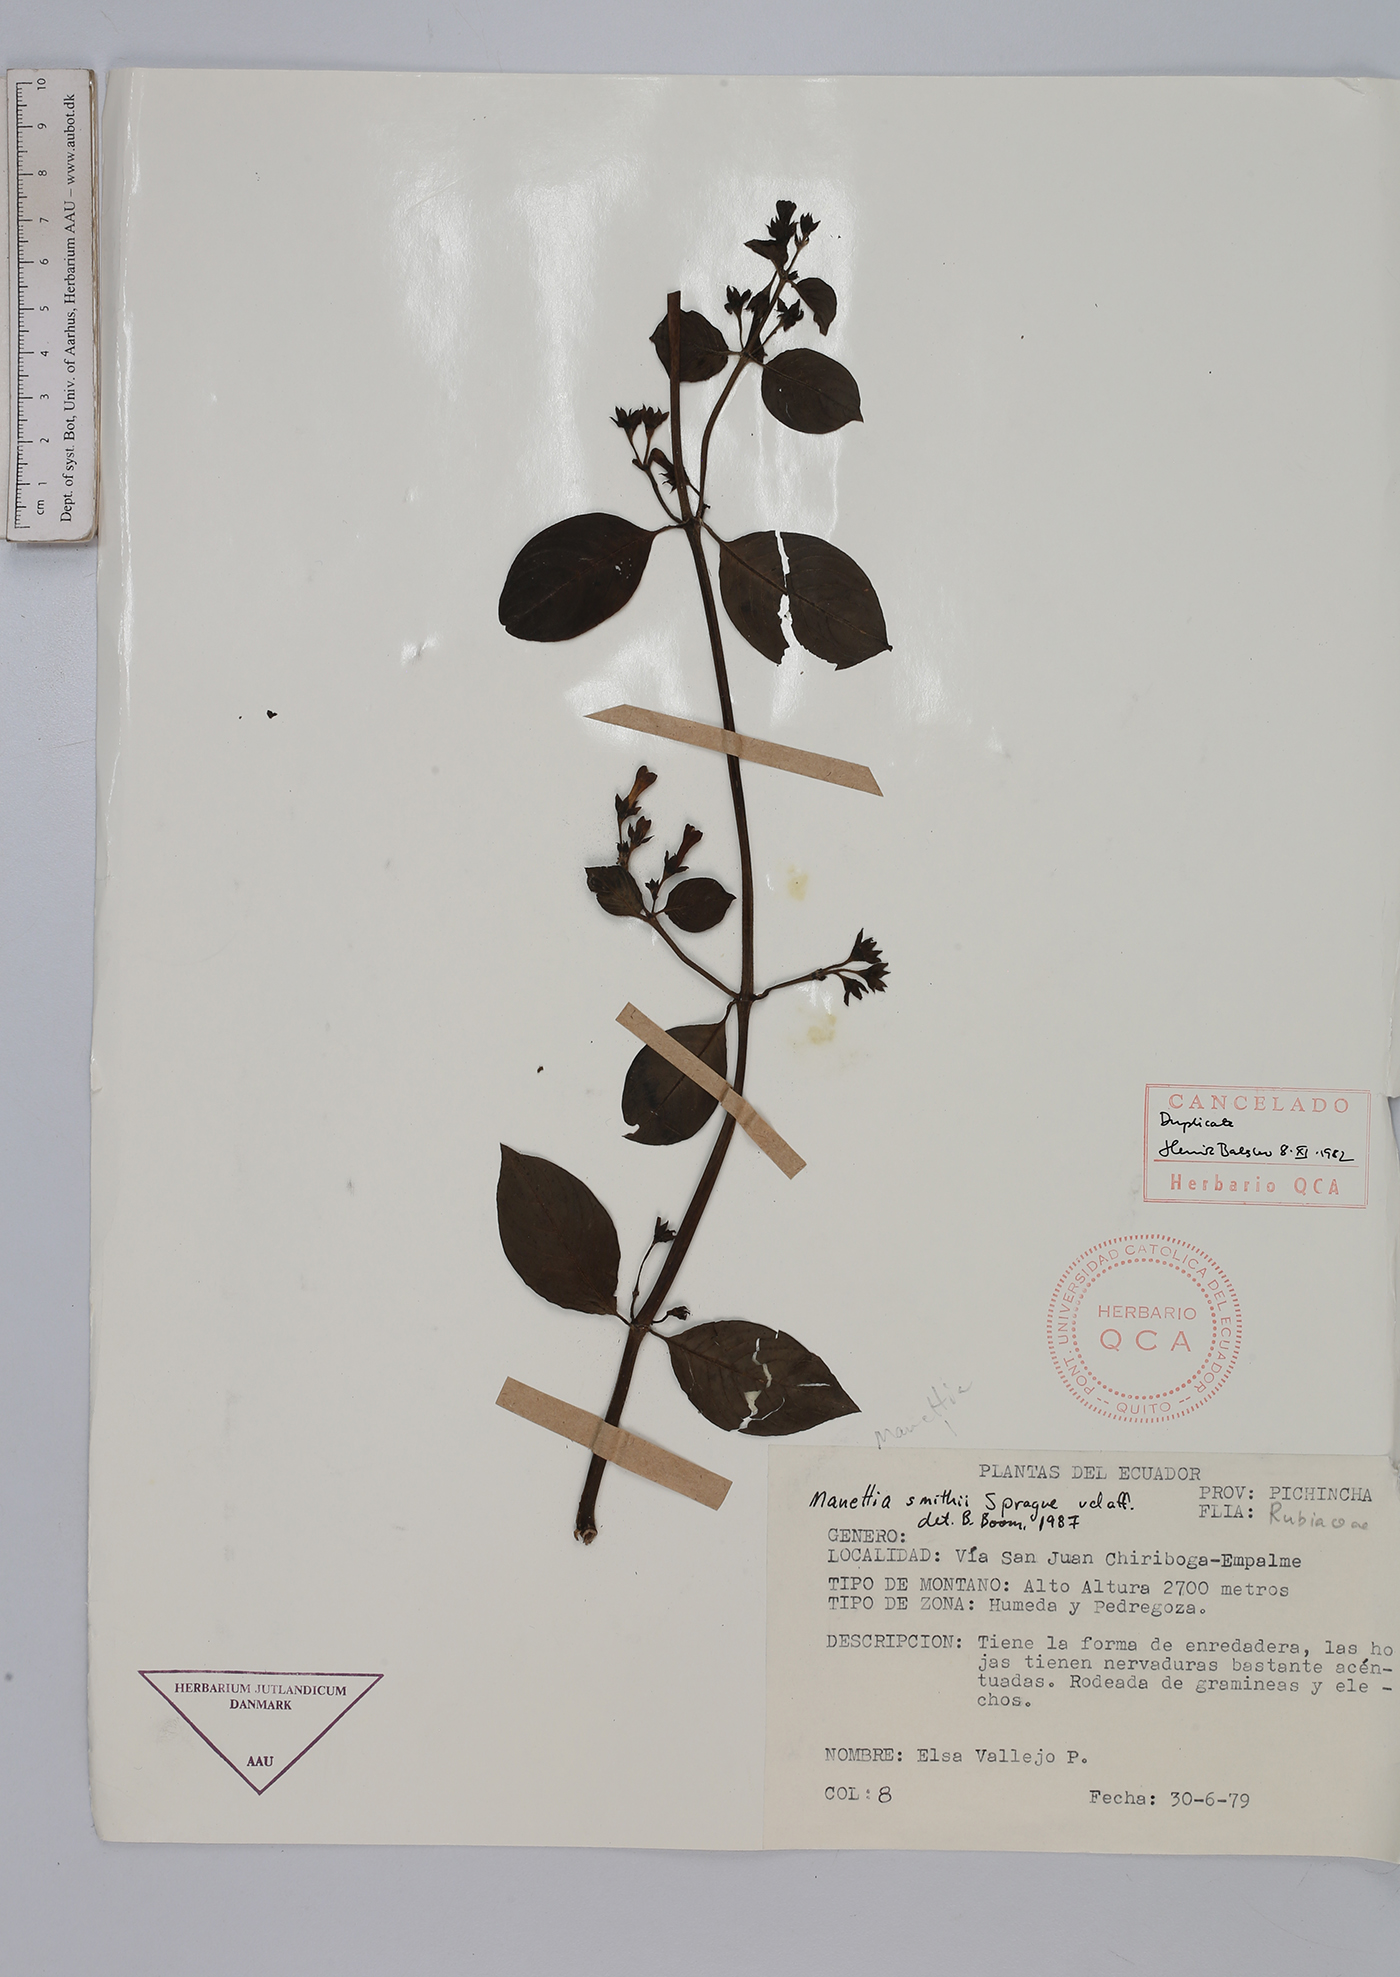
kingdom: Plantae
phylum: Tracheophyta
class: Magnoliopsida
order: Gentianales
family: Rubiaceae
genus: Manettia
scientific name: Manettia smithii
